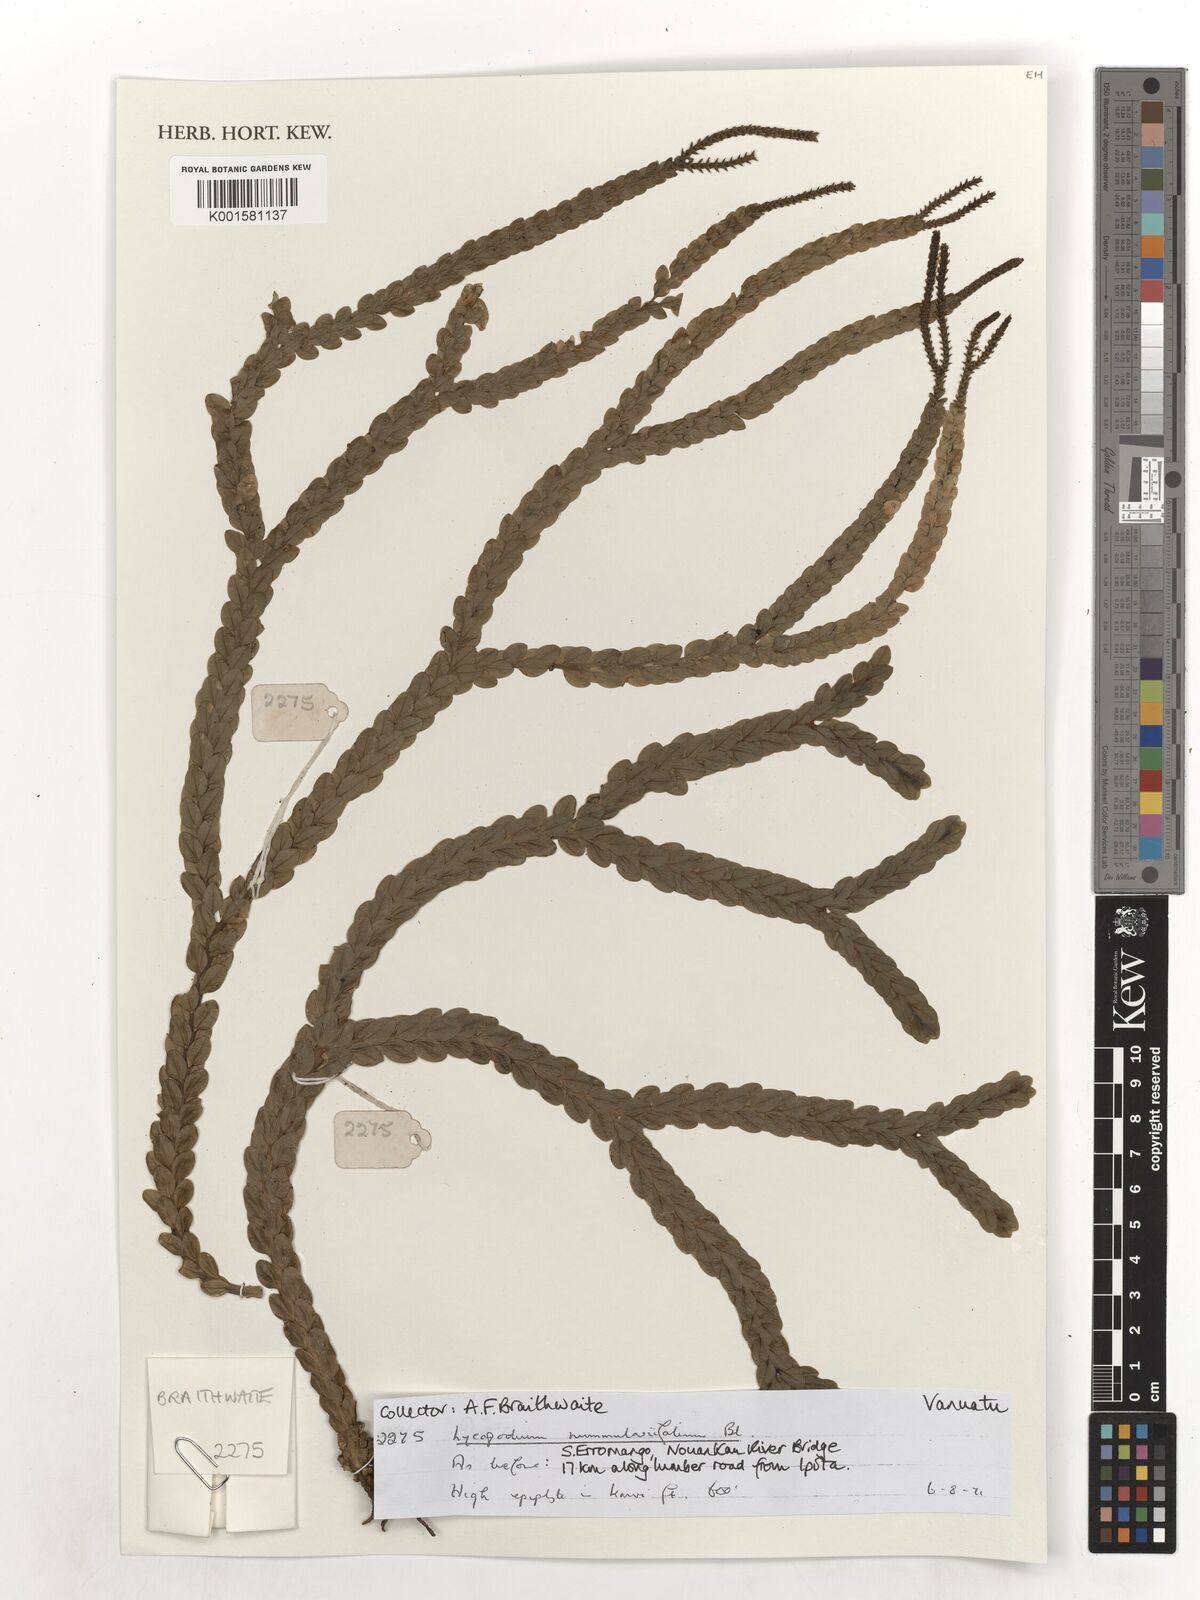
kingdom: Plantae
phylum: Tracheophyta
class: Lycopodiopsida
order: Lycopodiales
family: Lycopodiaceae
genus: Phlegmariurus
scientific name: Phlegmariurus nummulariifolius
